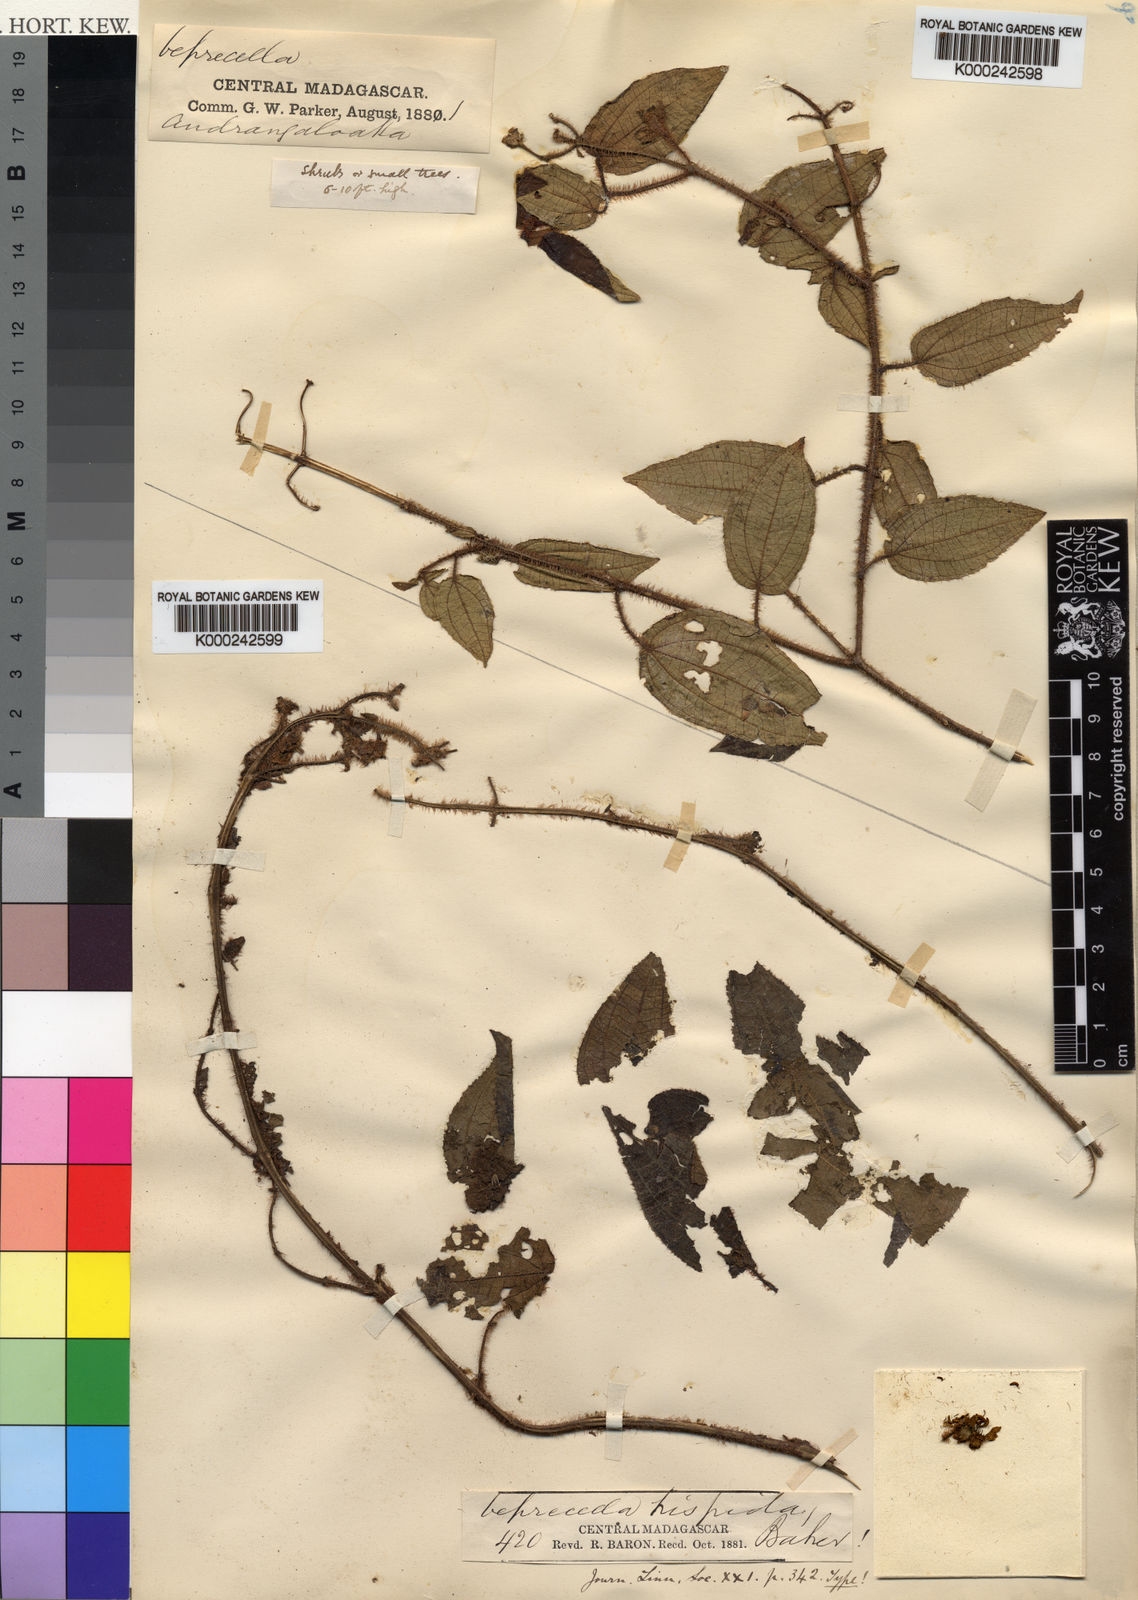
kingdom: Plantae
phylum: Tracheophyta
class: Magnoliopsida
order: Myrtales
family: Melastomataceae
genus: Gravesia
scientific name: Gravesia hispida
